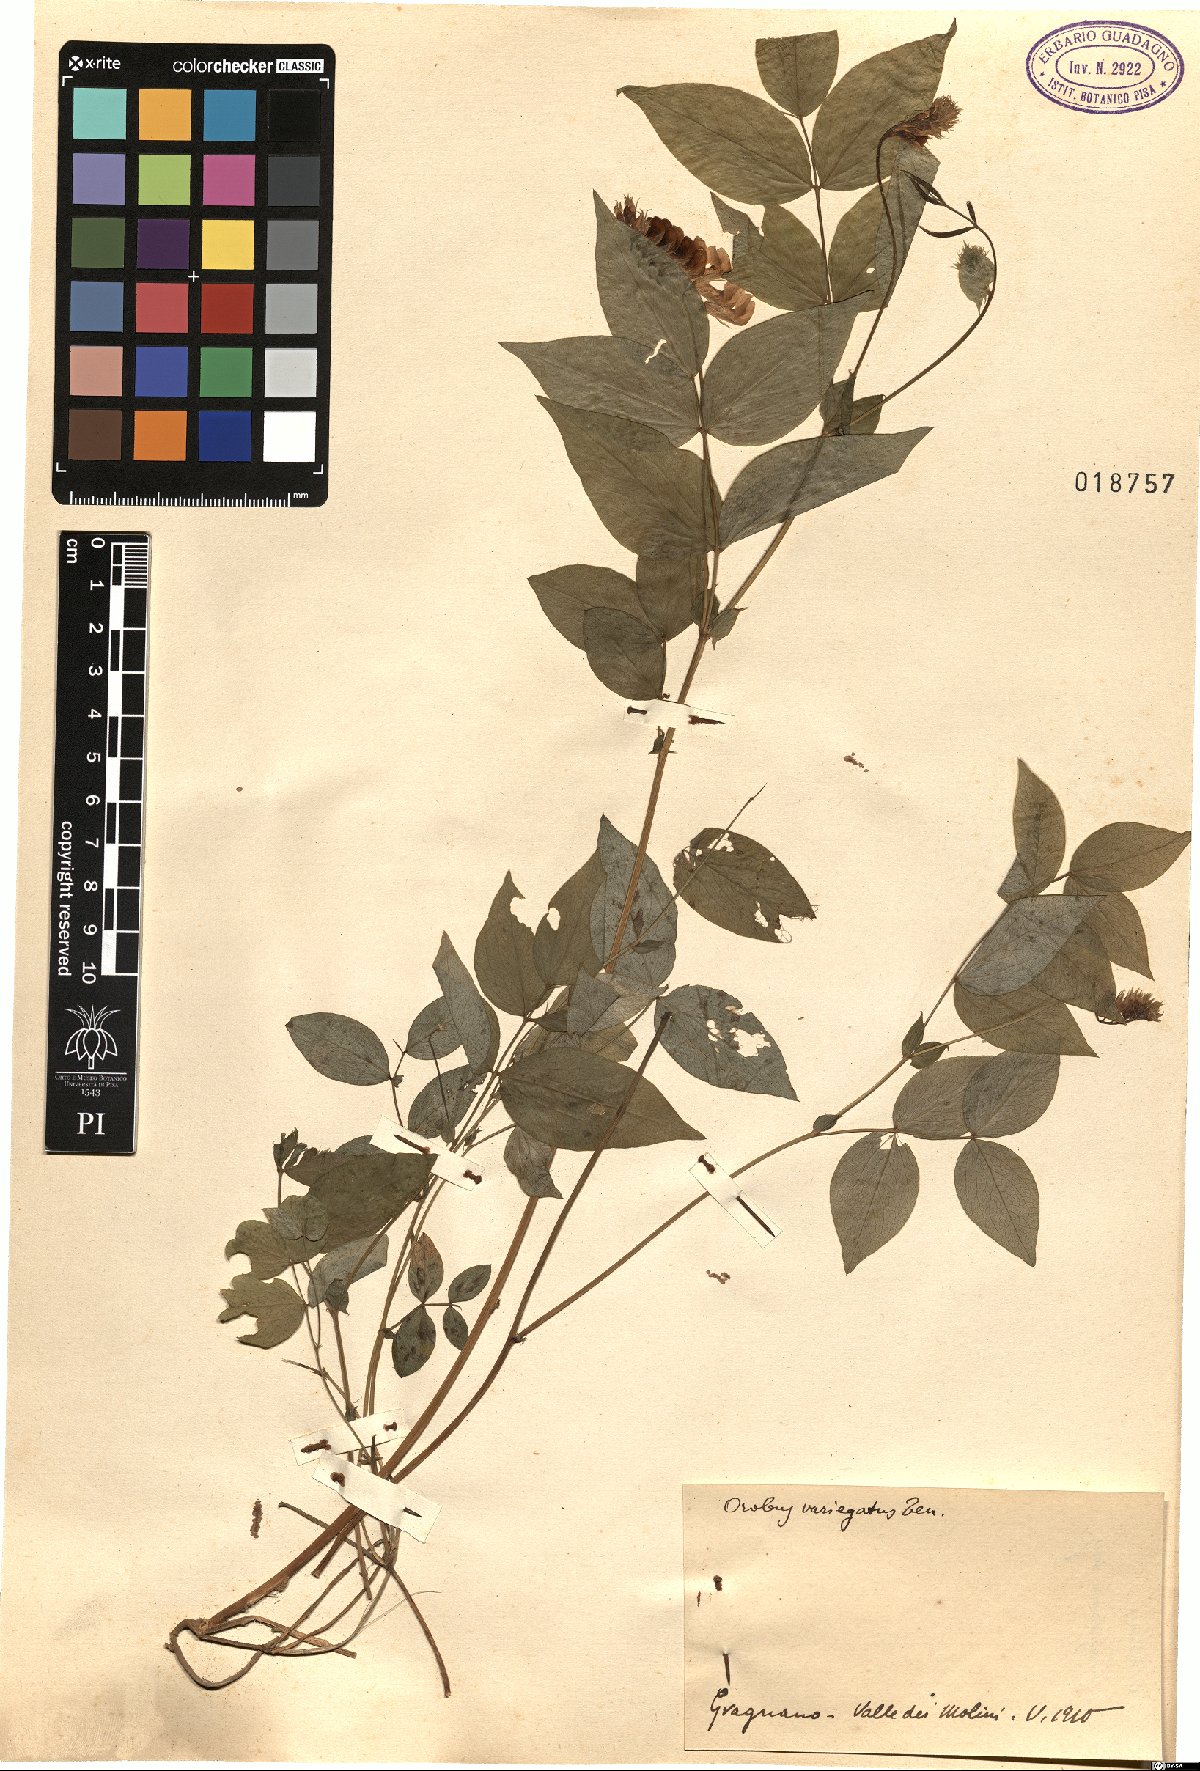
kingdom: Plantae
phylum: Tracheophyta
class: Magnoliopsida
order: Fabales
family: Fabaceae
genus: Lathyrus
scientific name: Lathyrus venetus
